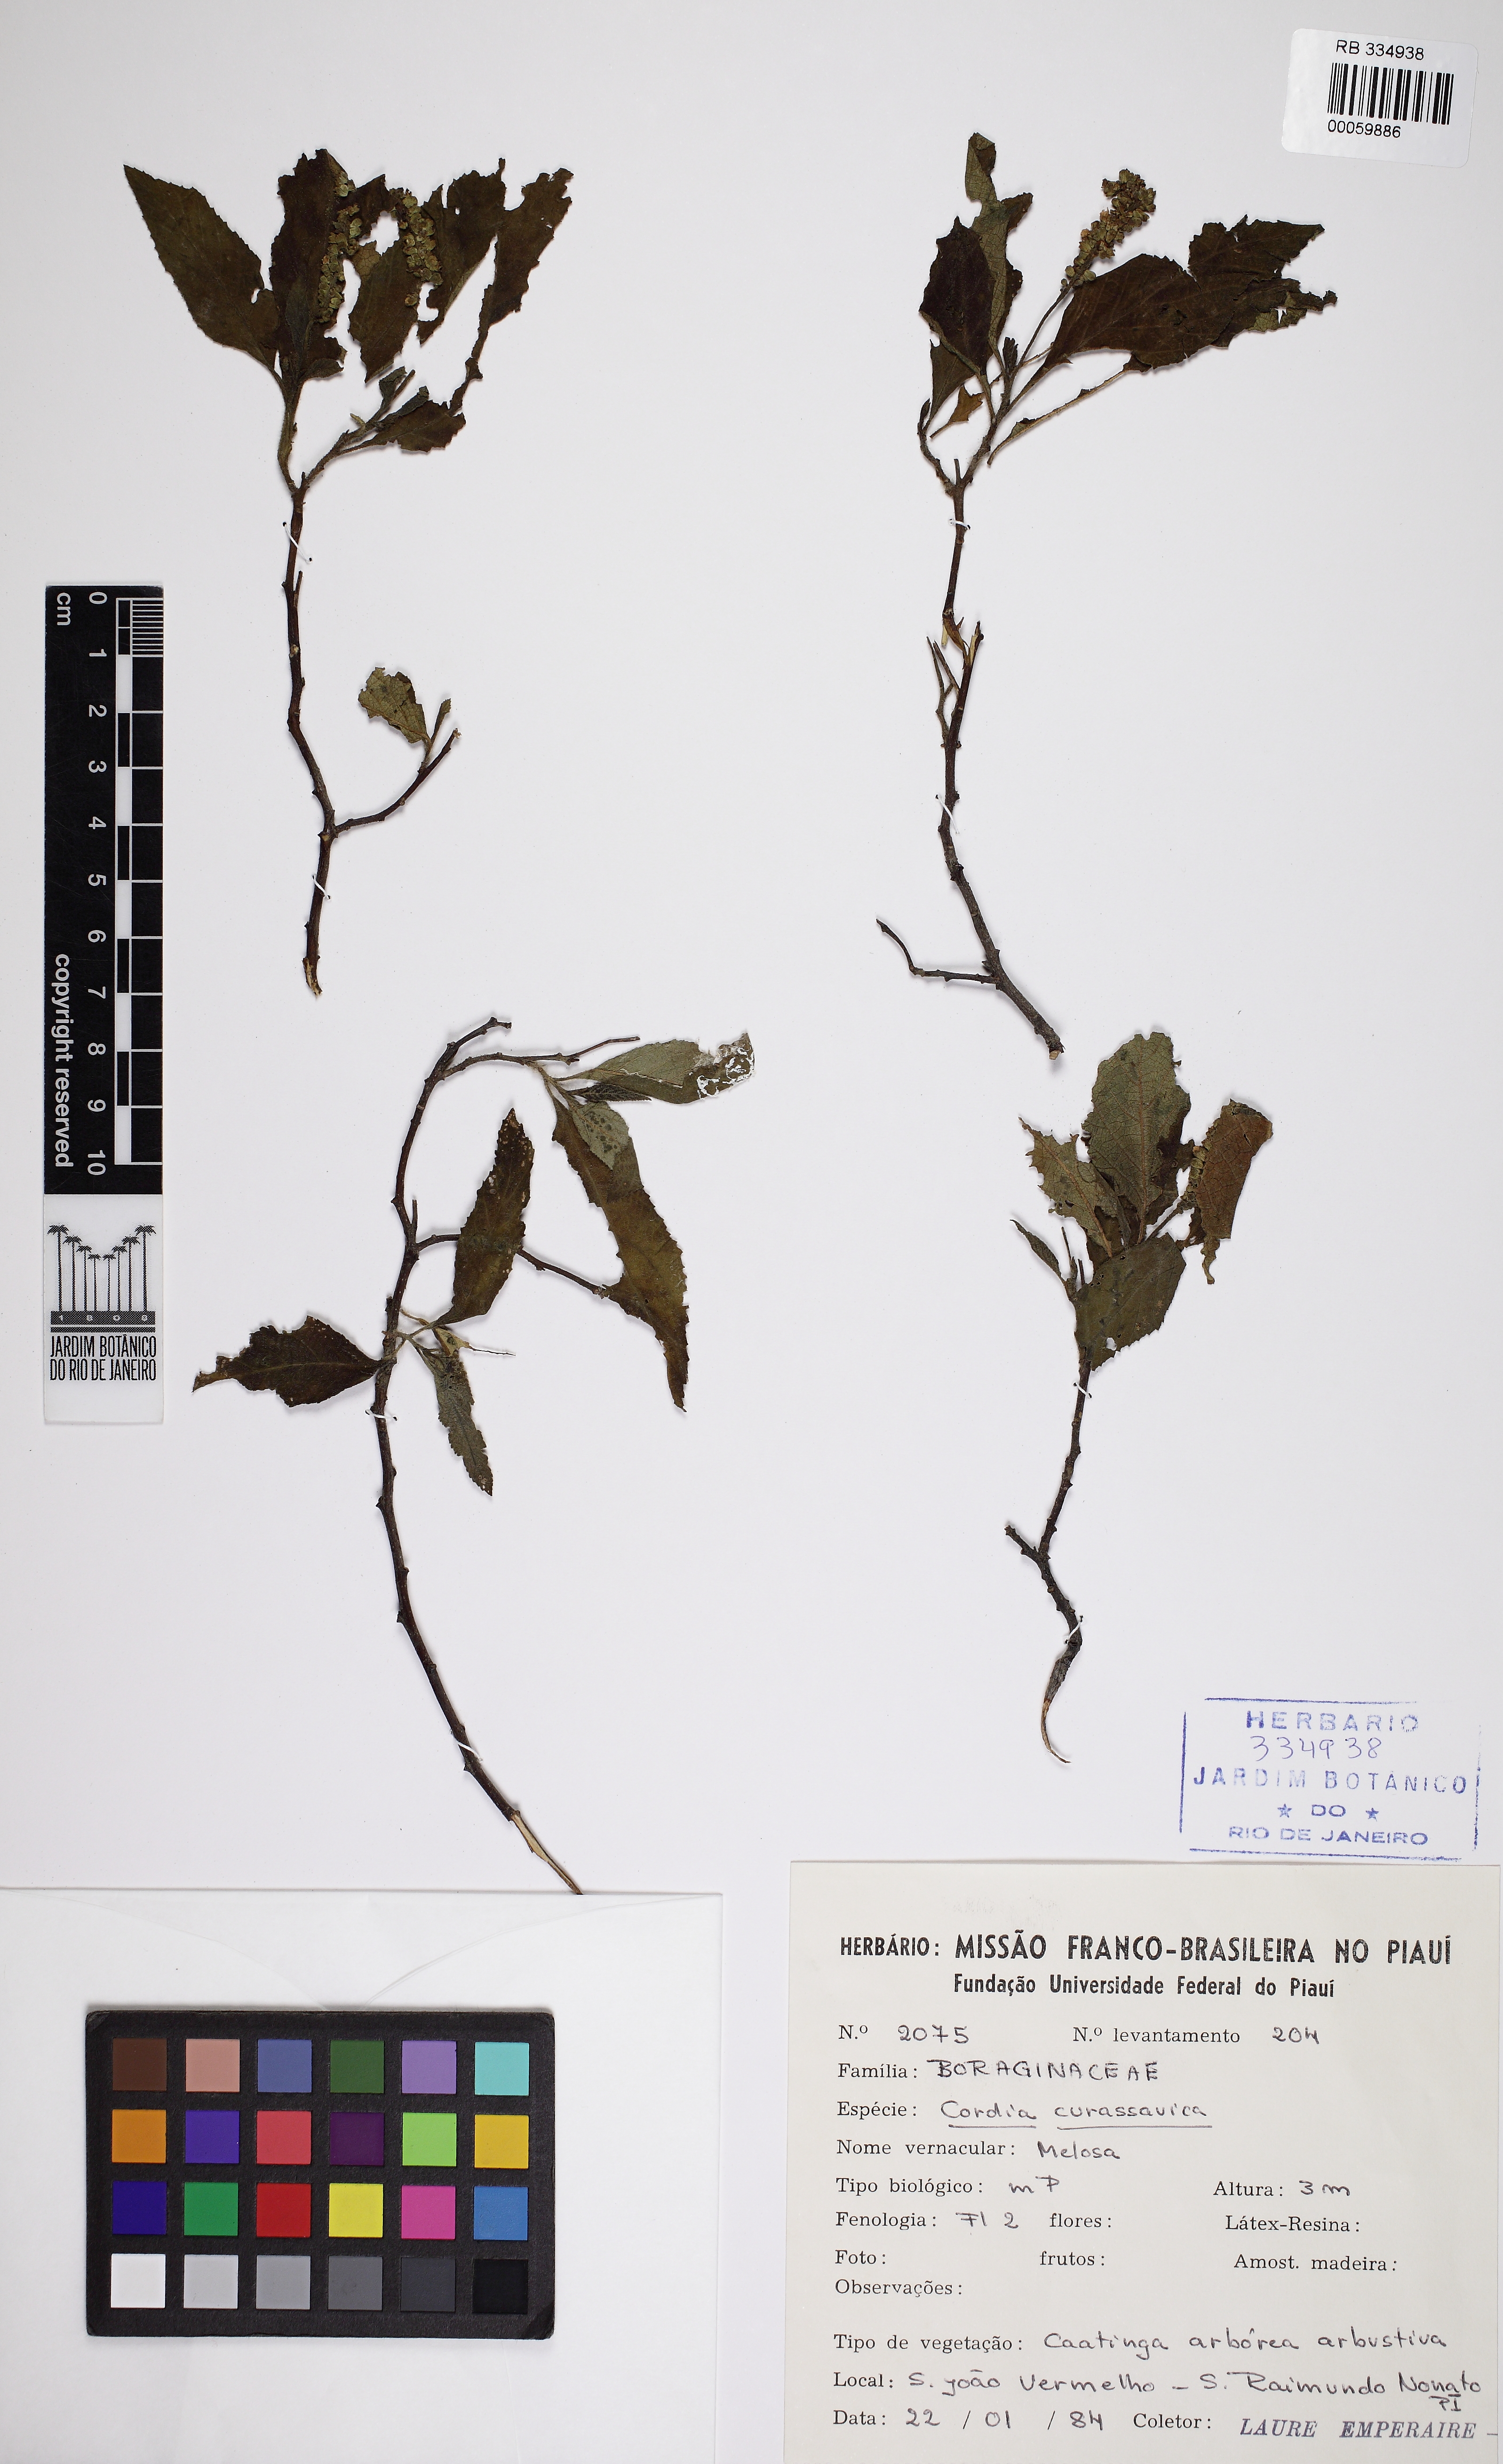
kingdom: Plantae
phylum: Tracheophyta
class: Magnoliopsida
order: Boraginales
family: Cordiaceae
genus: Varronia
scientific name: Varronia curassavica
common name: Black sage
